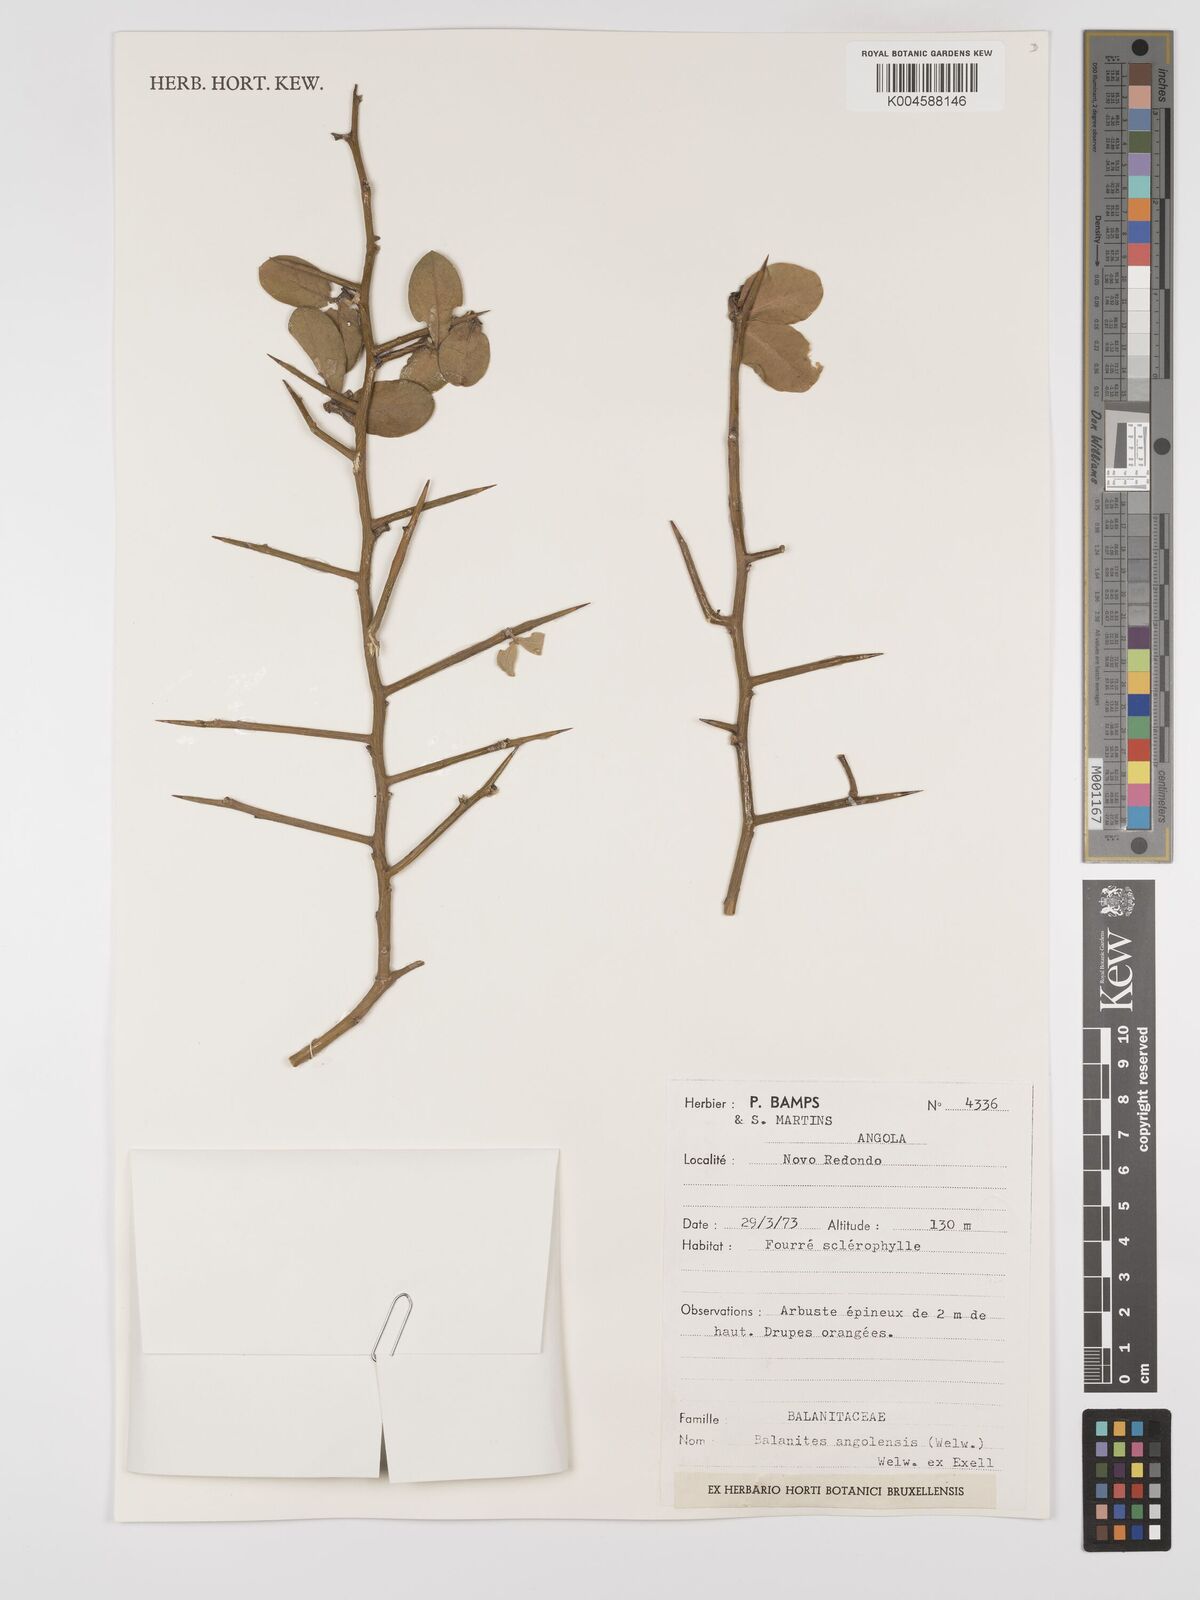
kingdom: Plantae
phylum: Tracheophyta
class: Magnoliopsida
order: Zygophyllales
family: Zygophyllaceae
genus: Balanites
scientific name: Balanites angolensis
